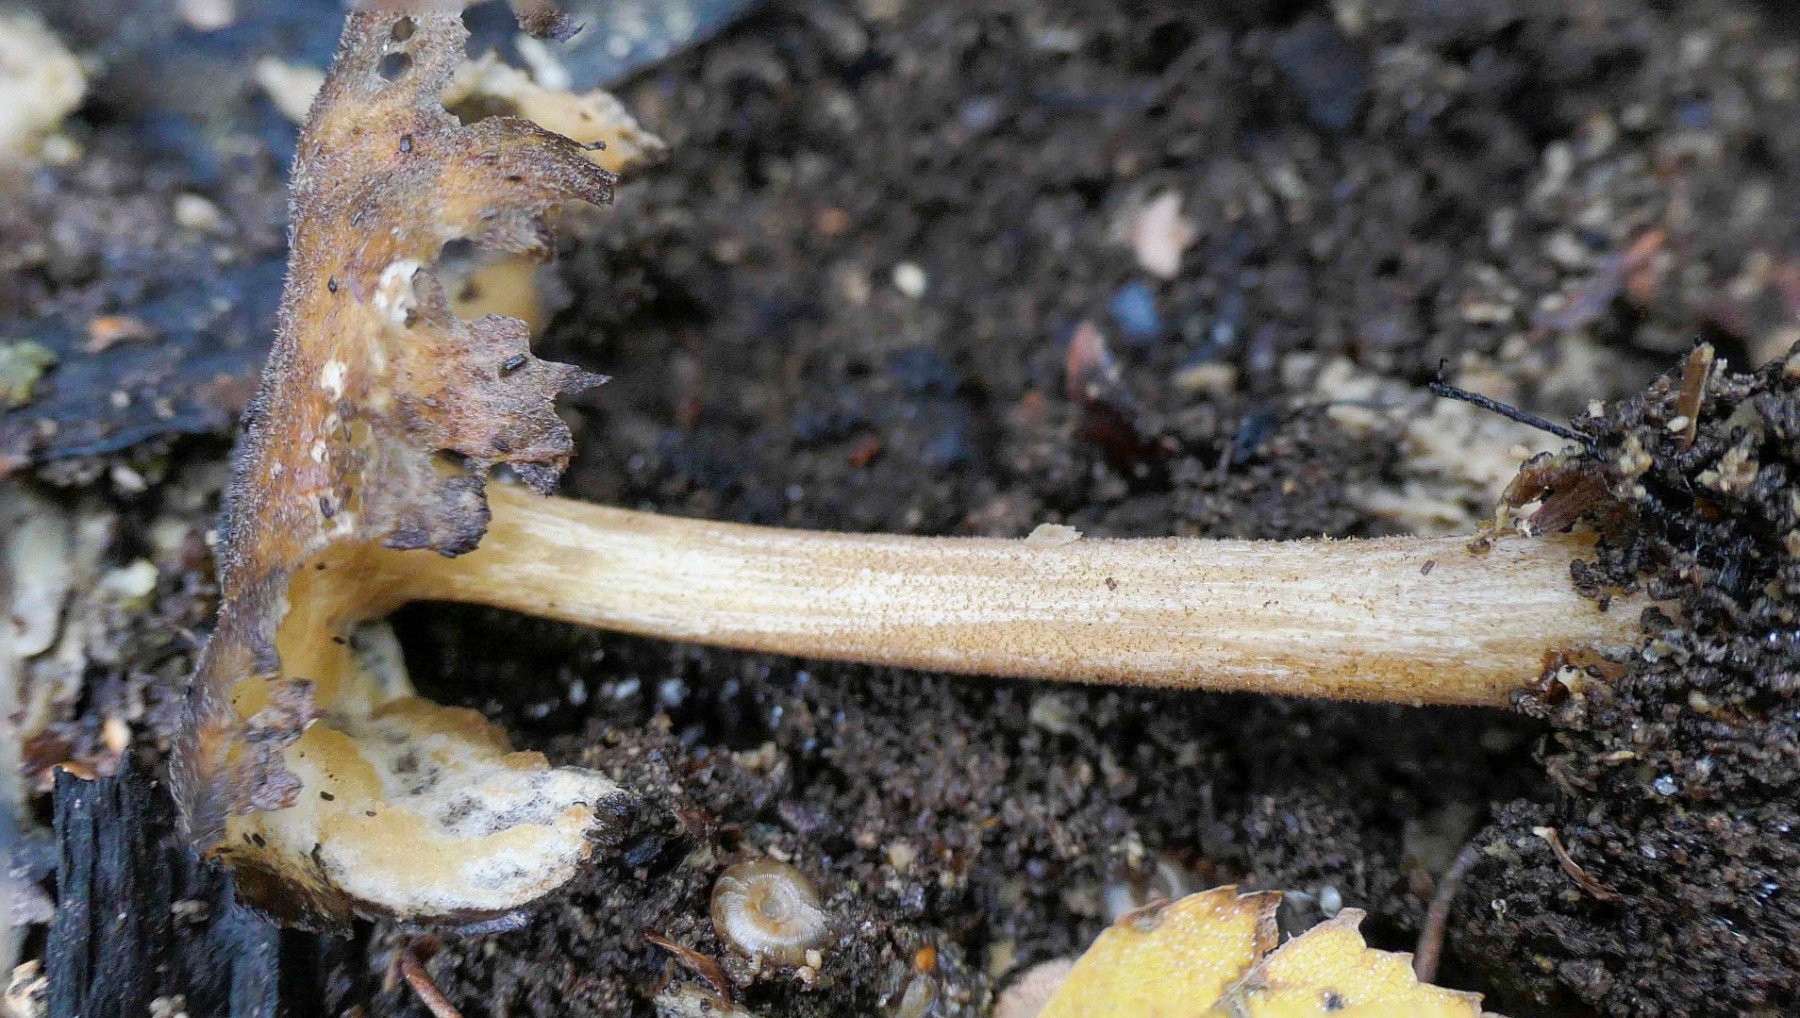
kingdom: Fungi
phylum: Basidiomycota
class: Agaricomycetes
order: Agaricales
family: Pluteaceae
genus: Pluteus
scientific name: Pluteus podospileus
